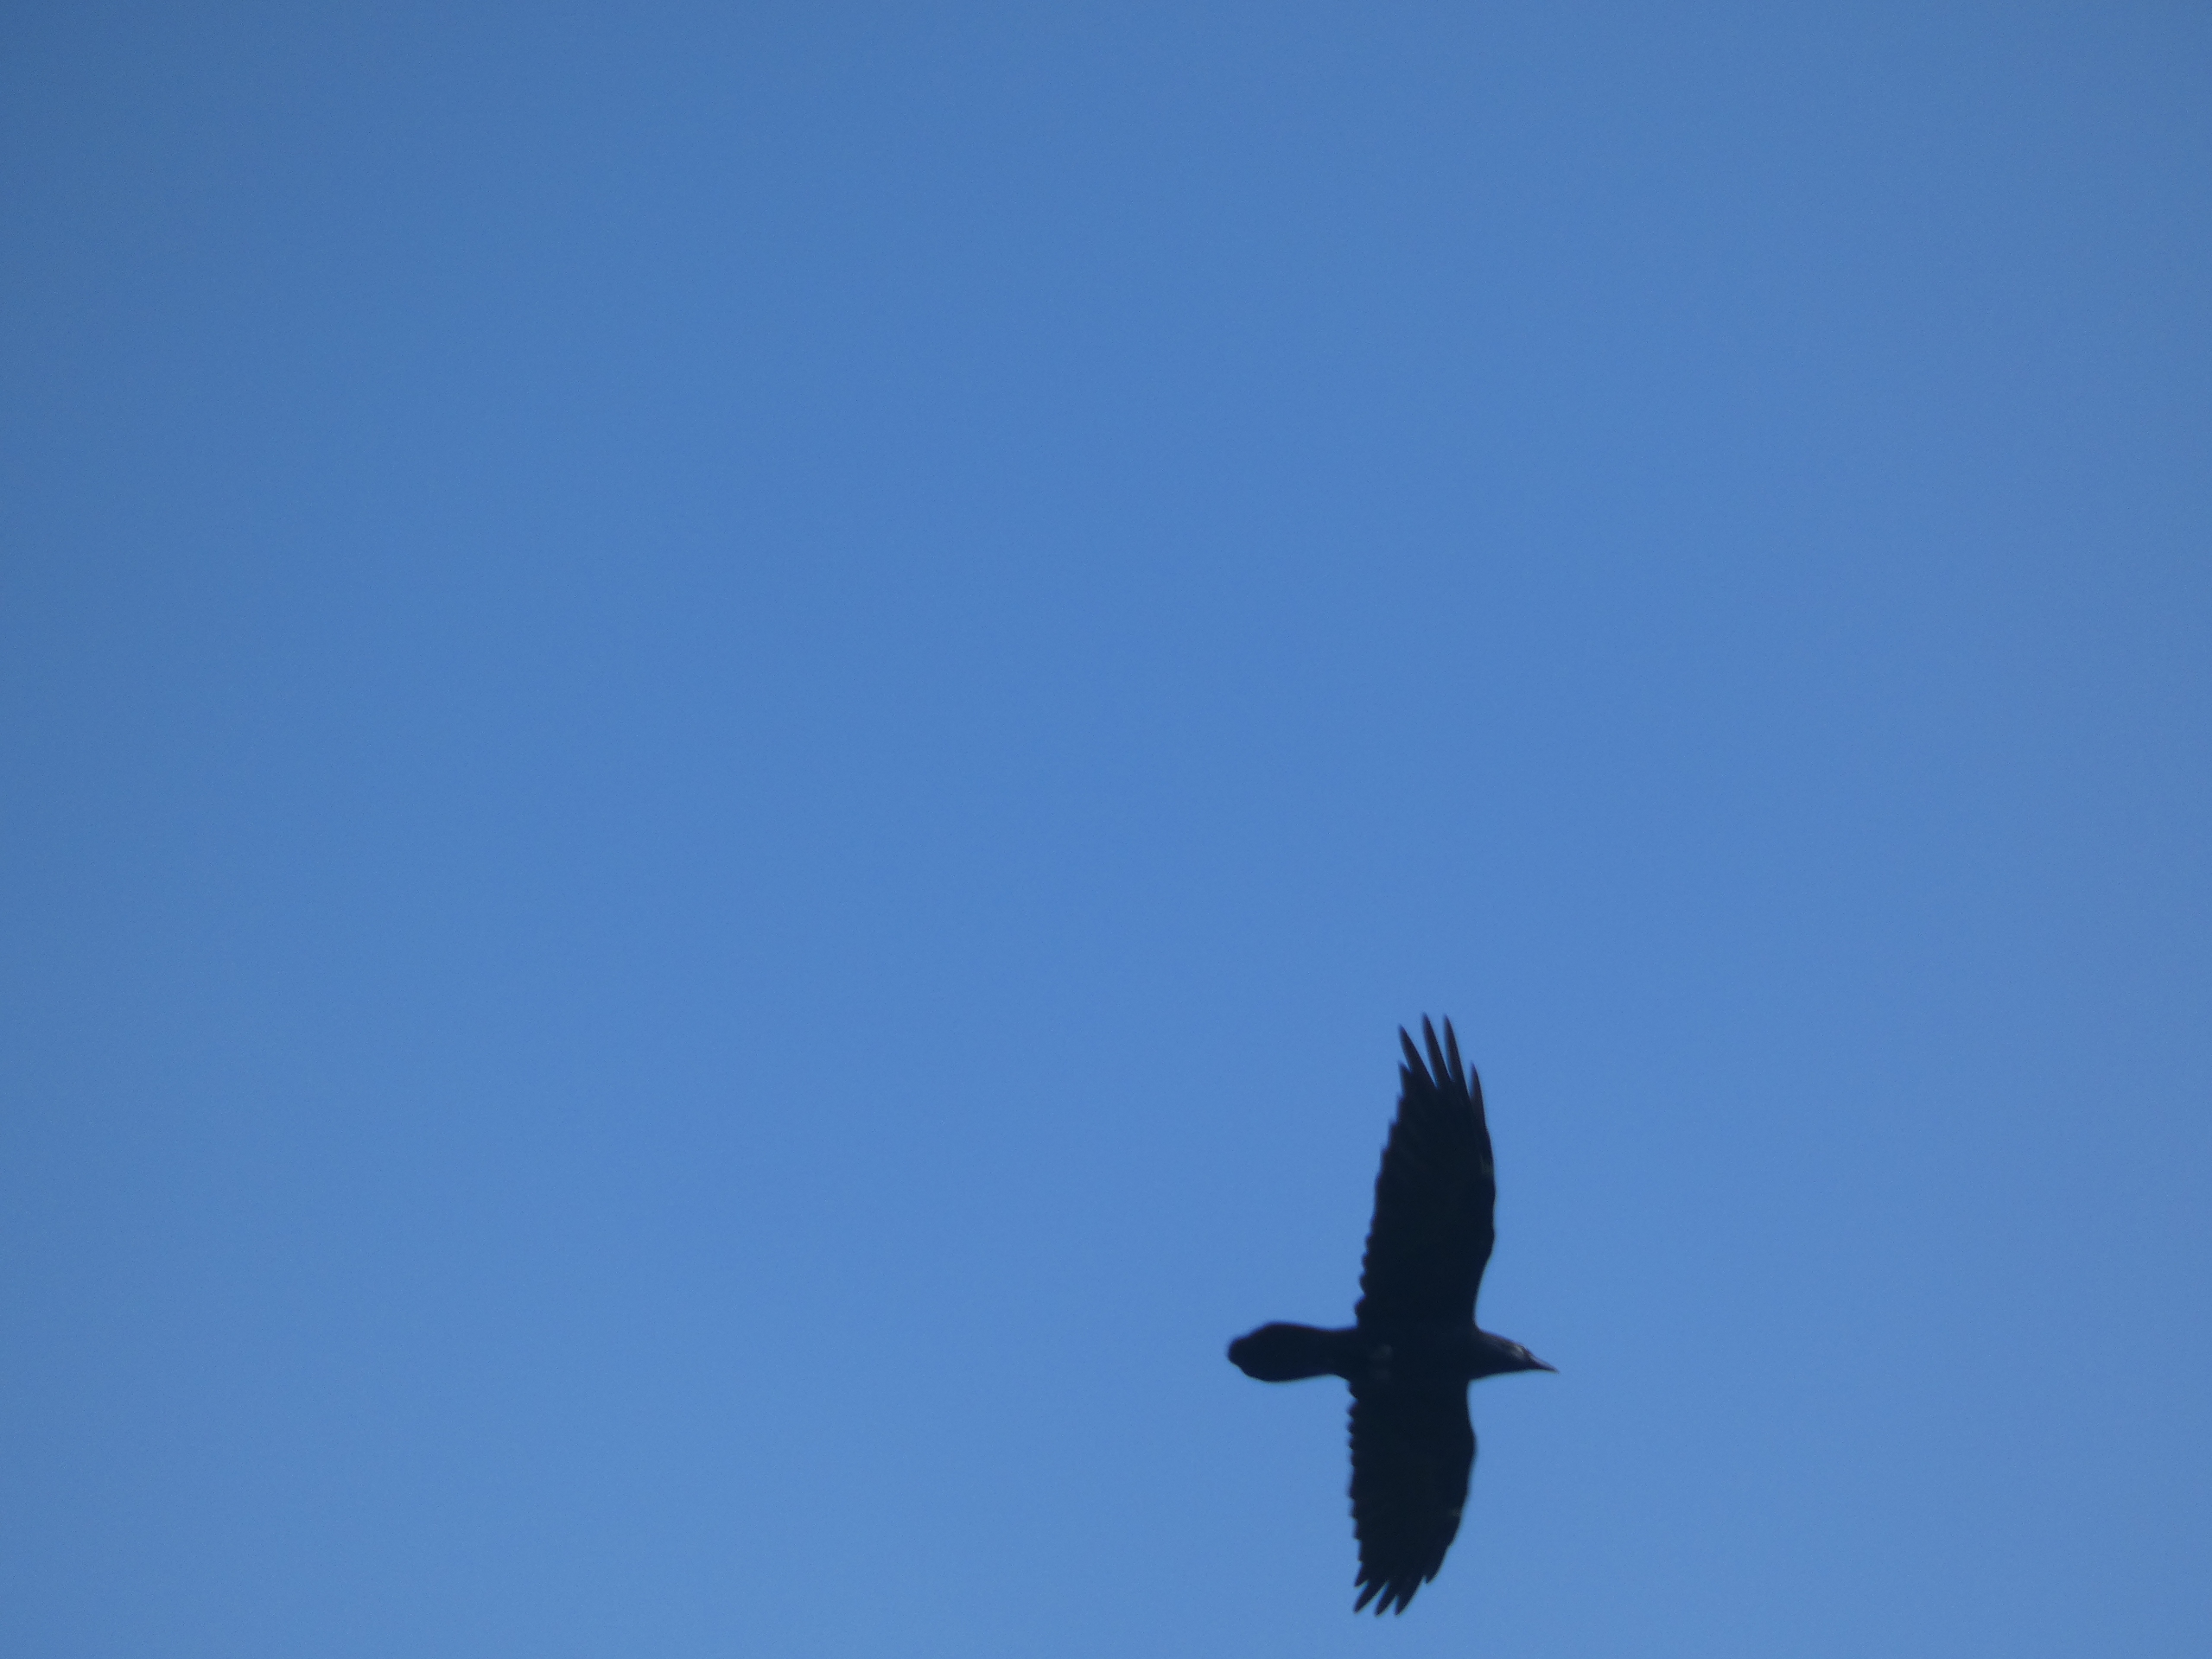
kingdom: Animalia
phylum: Chordata
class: Aves
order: Passeriformes
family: Corvidae
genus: Corvus
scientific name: Corvus corax
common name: Ravn
